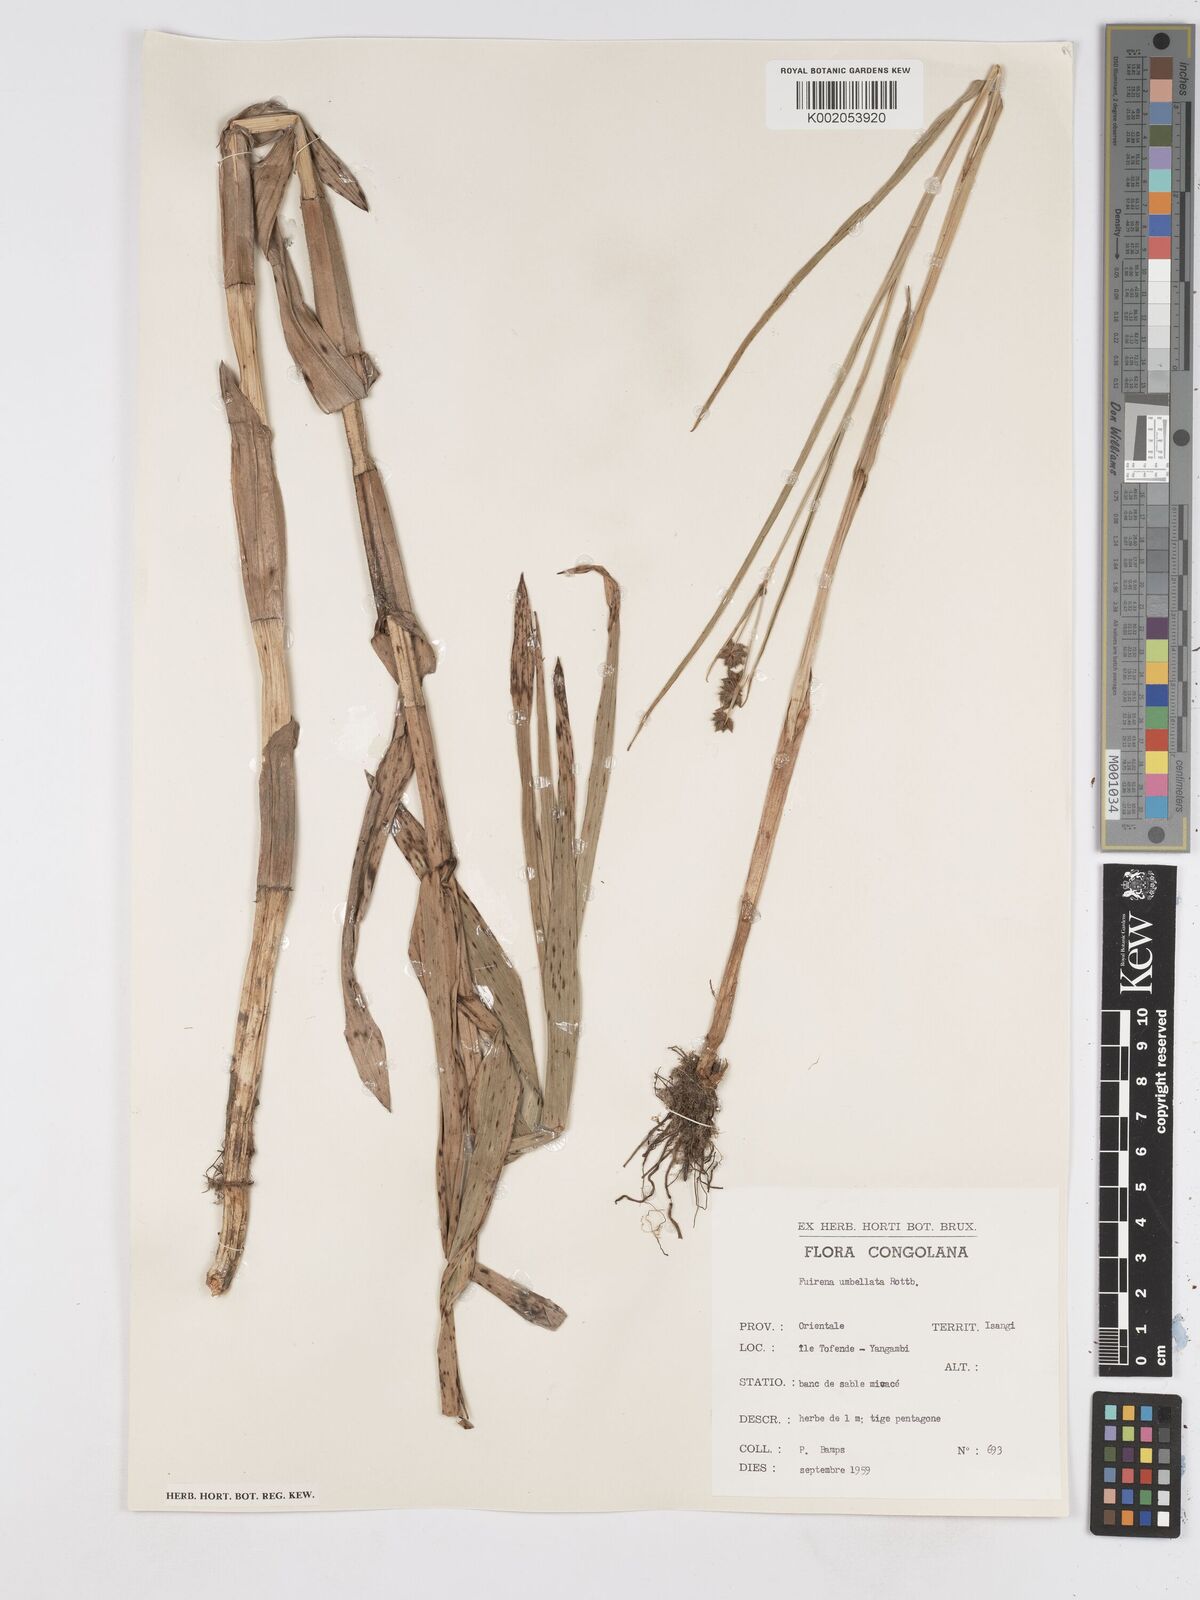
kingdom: Plantae
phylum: Tracheophyta
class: Liliopsida
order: Poales
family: Cyperaceae
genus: Fuirena
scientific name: Fuirena umbellata
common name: Yefen
